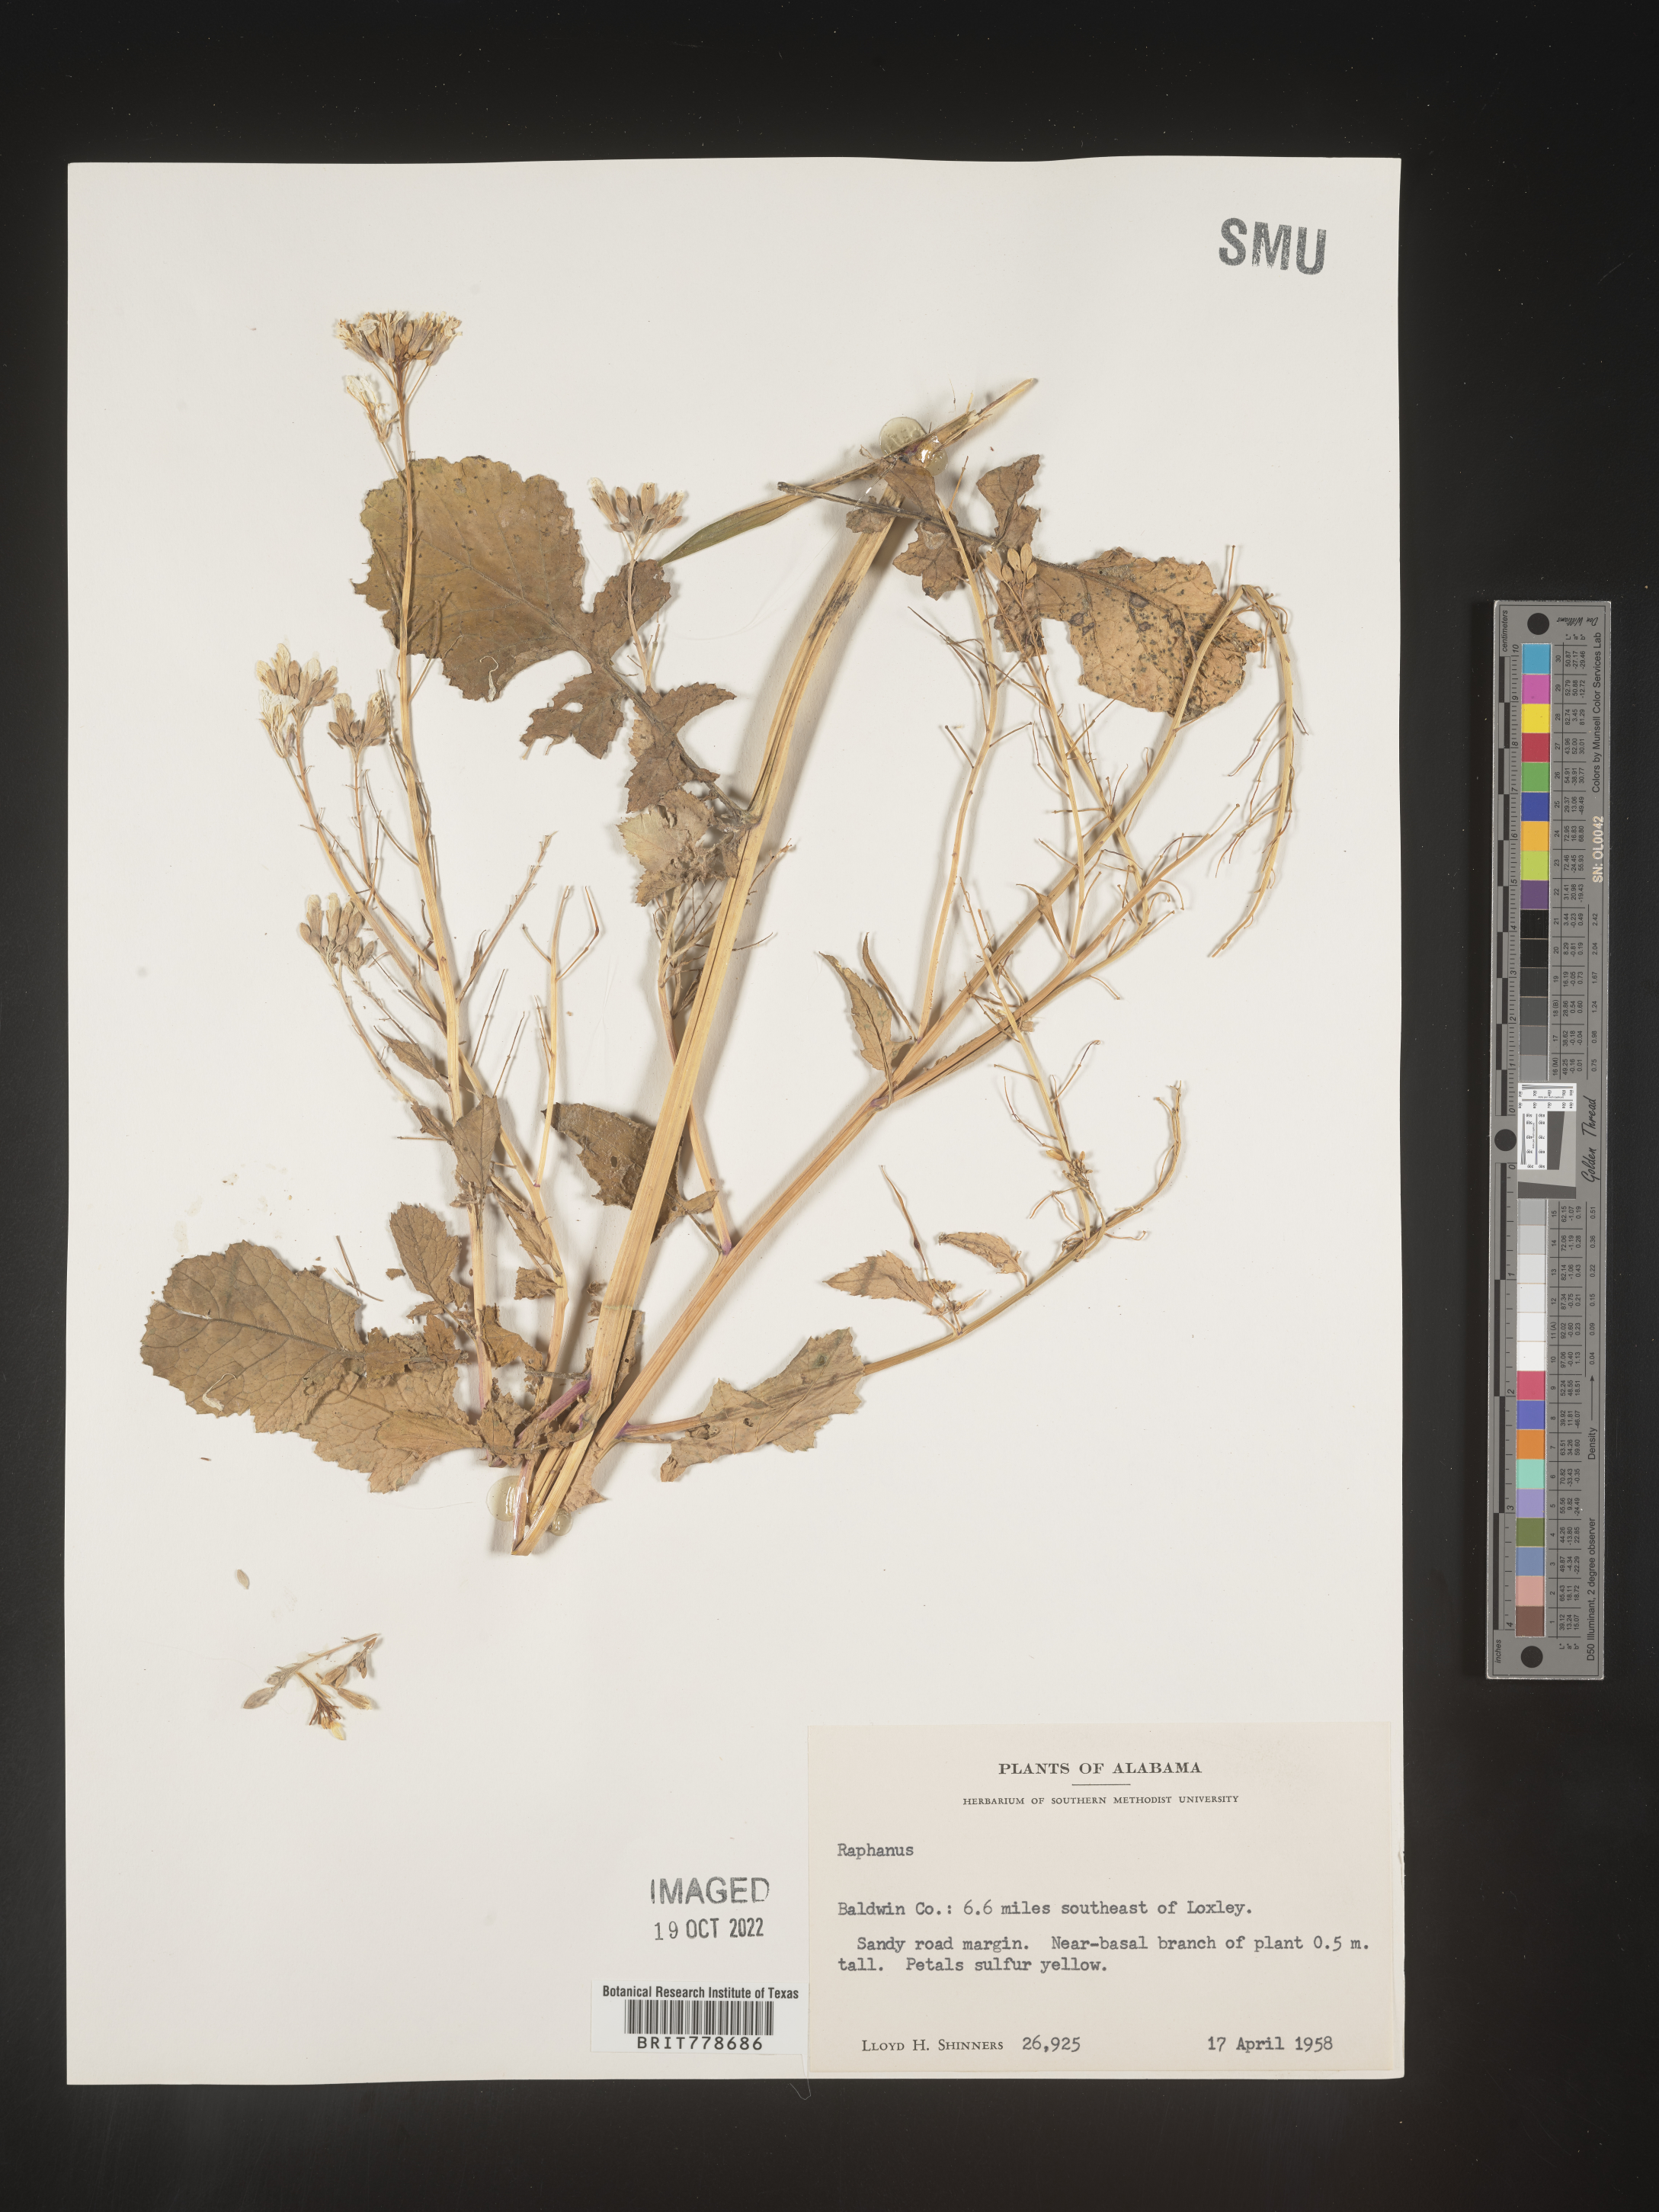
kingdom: Plantae
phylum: Tracheophyta
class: Magnoliopsida
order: Brassicales
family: Brassicaceae
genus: Raphanus
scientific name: Raphanus
